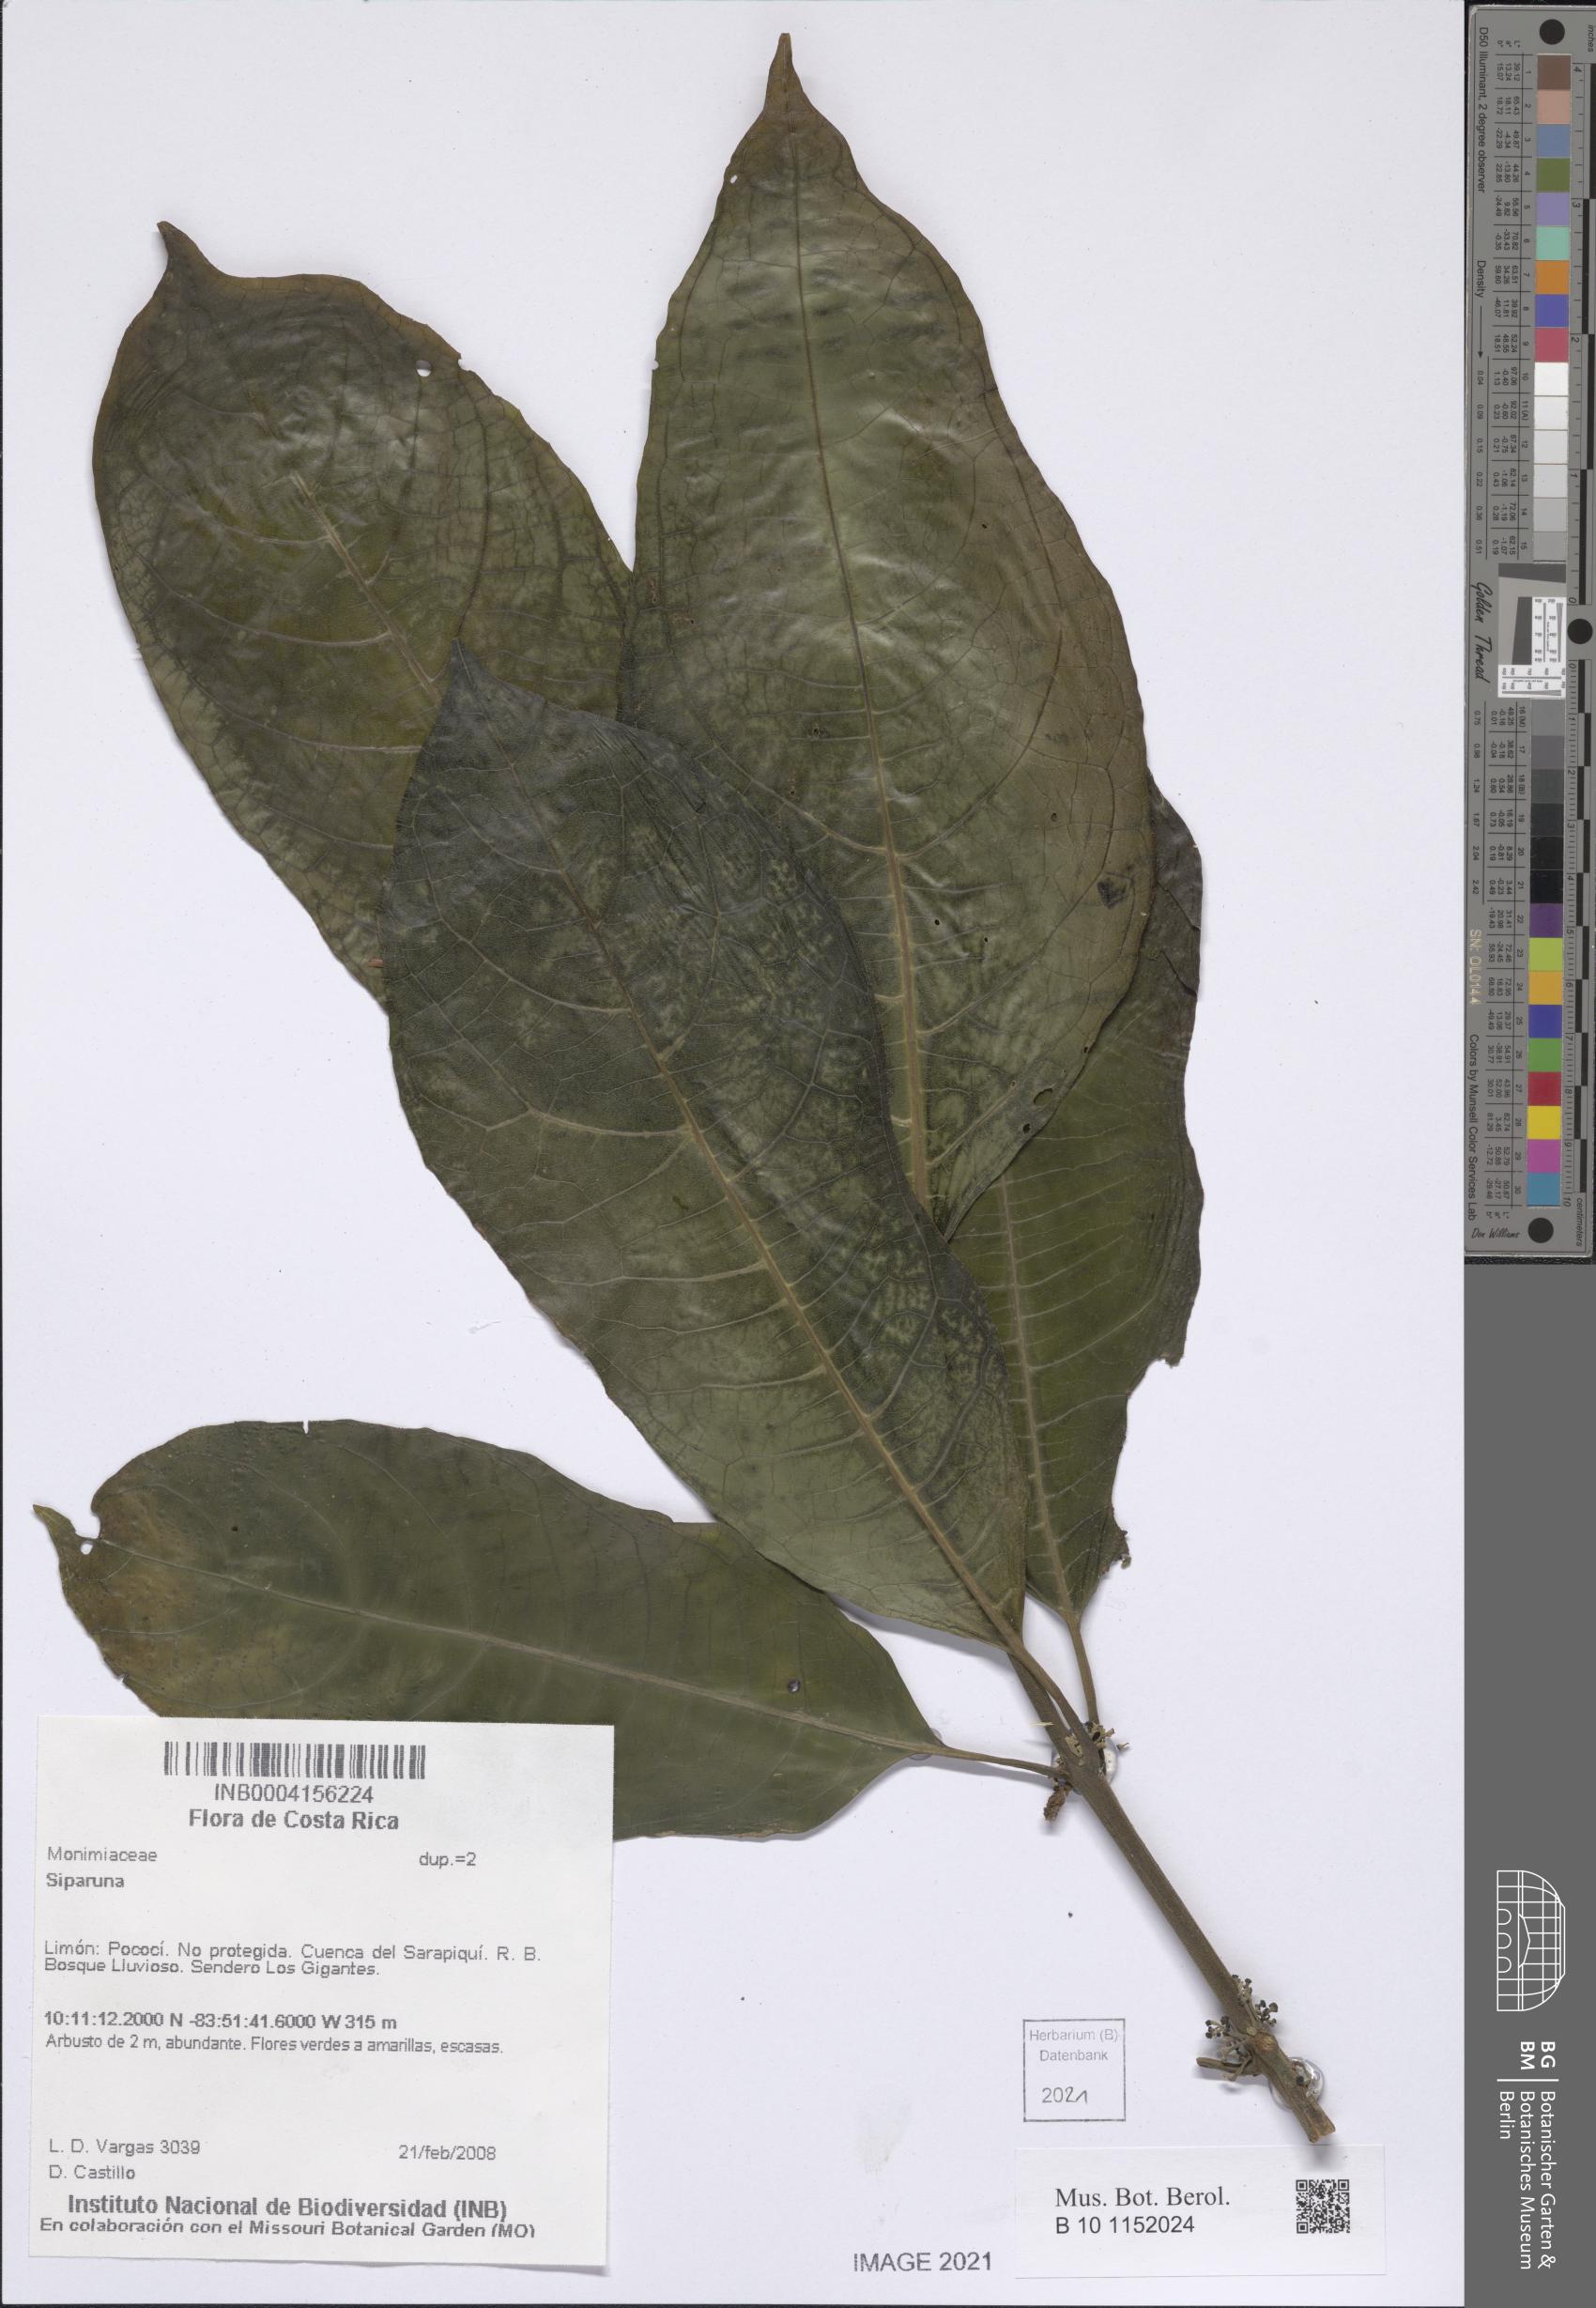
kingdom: Plantae
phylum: Tracheophyta
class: Magnoliopsida
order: Laurales
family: Siparunaceae
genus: Siparuna
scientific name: Siparuna
